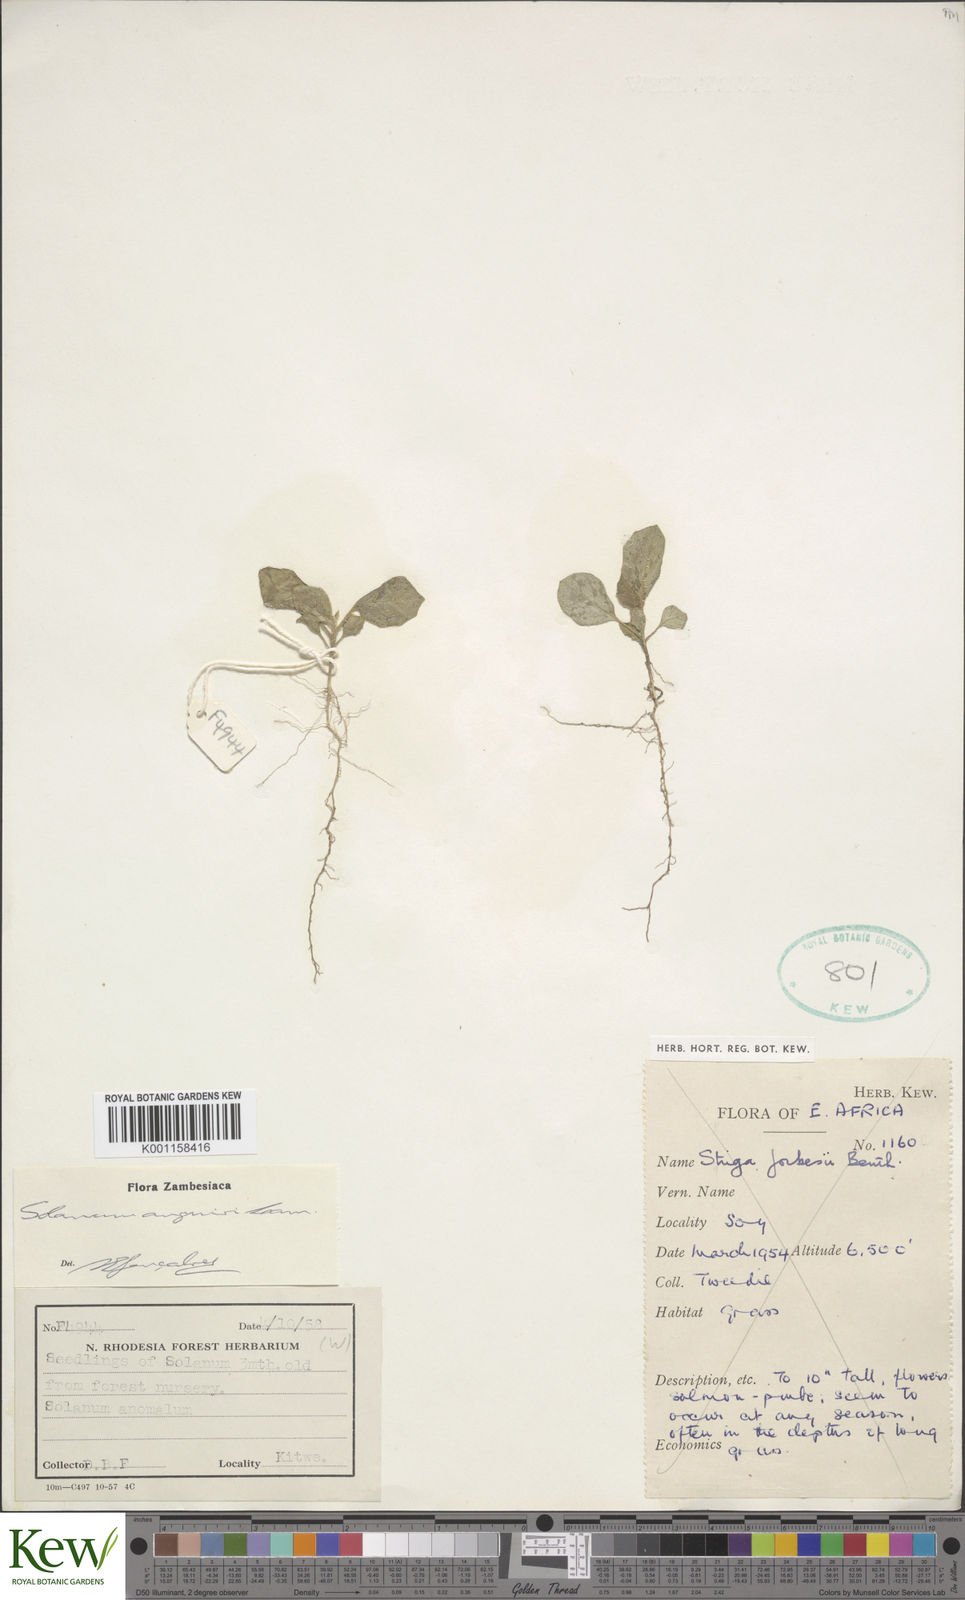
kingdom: Plantae
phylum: Tracheophyta
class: Magnoliopsida
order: Solanales
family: Solanaceae
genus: Solanum
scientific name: Solanum anguivi
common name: Forest bitterberry
